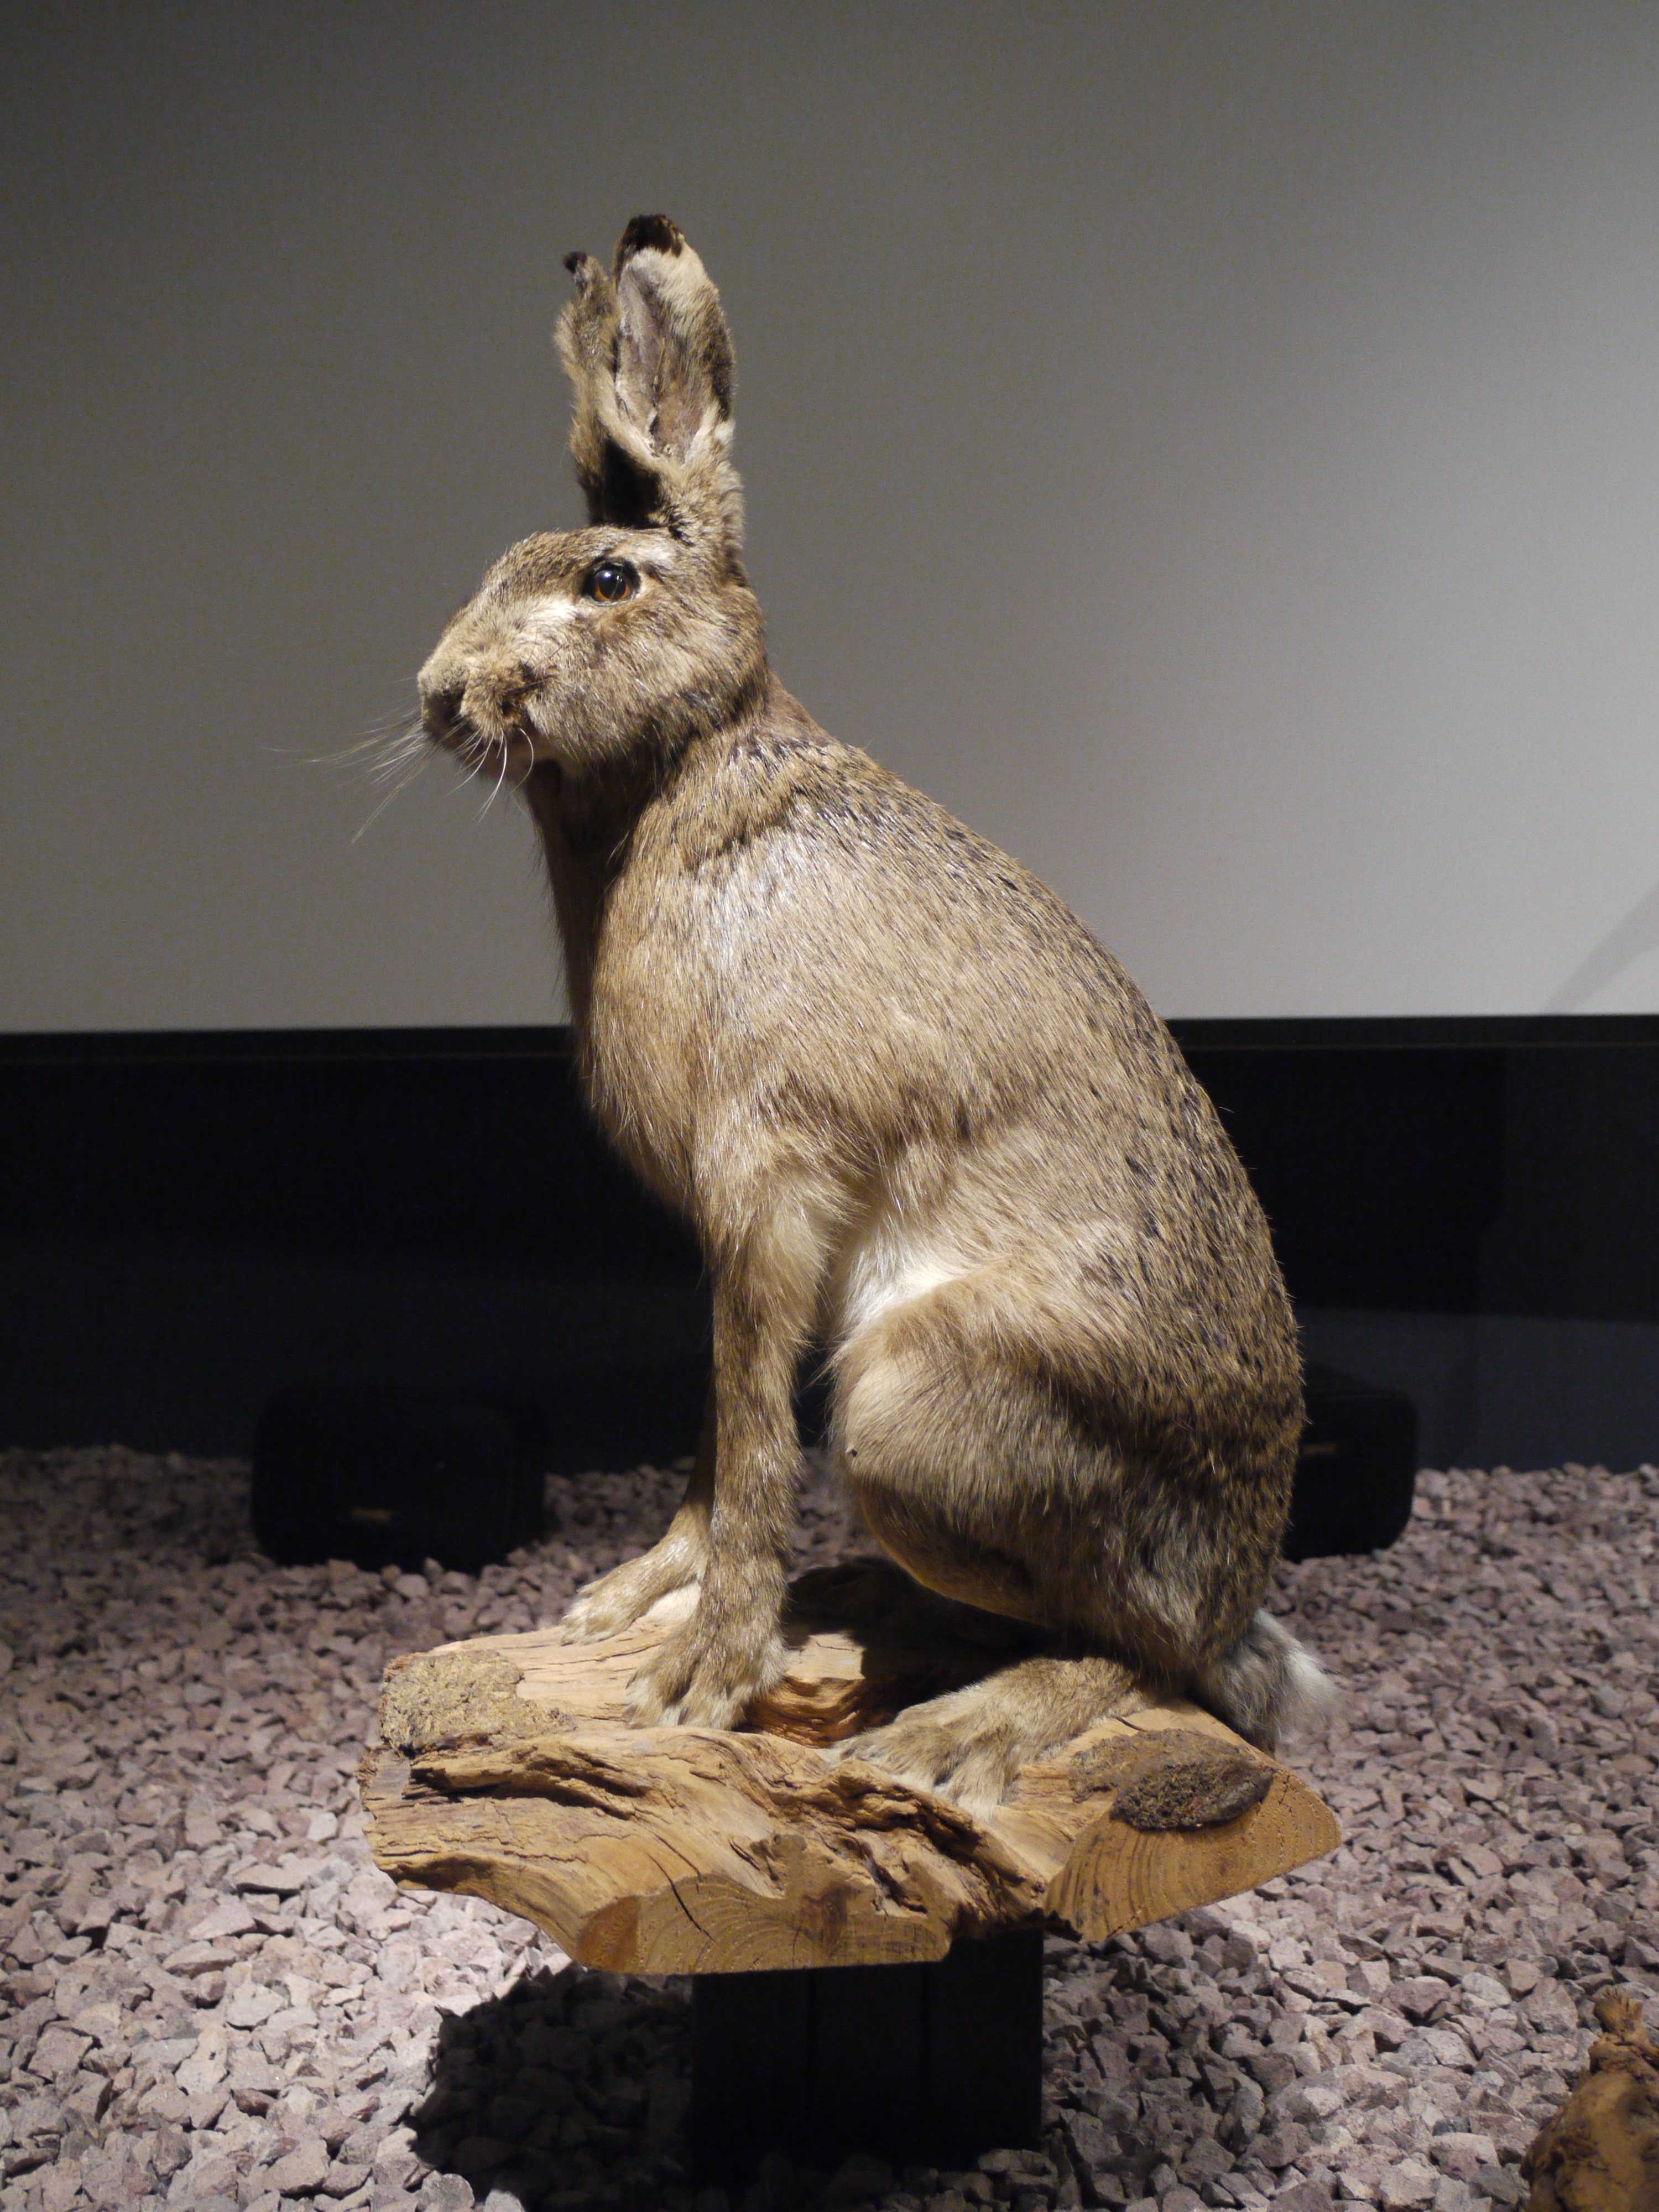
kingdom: Animalia
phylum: Chordata
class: Mammalia
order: Lagomorpha
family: Leporidae
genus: Lepus
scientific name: Lepus europaeus
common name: European hare
